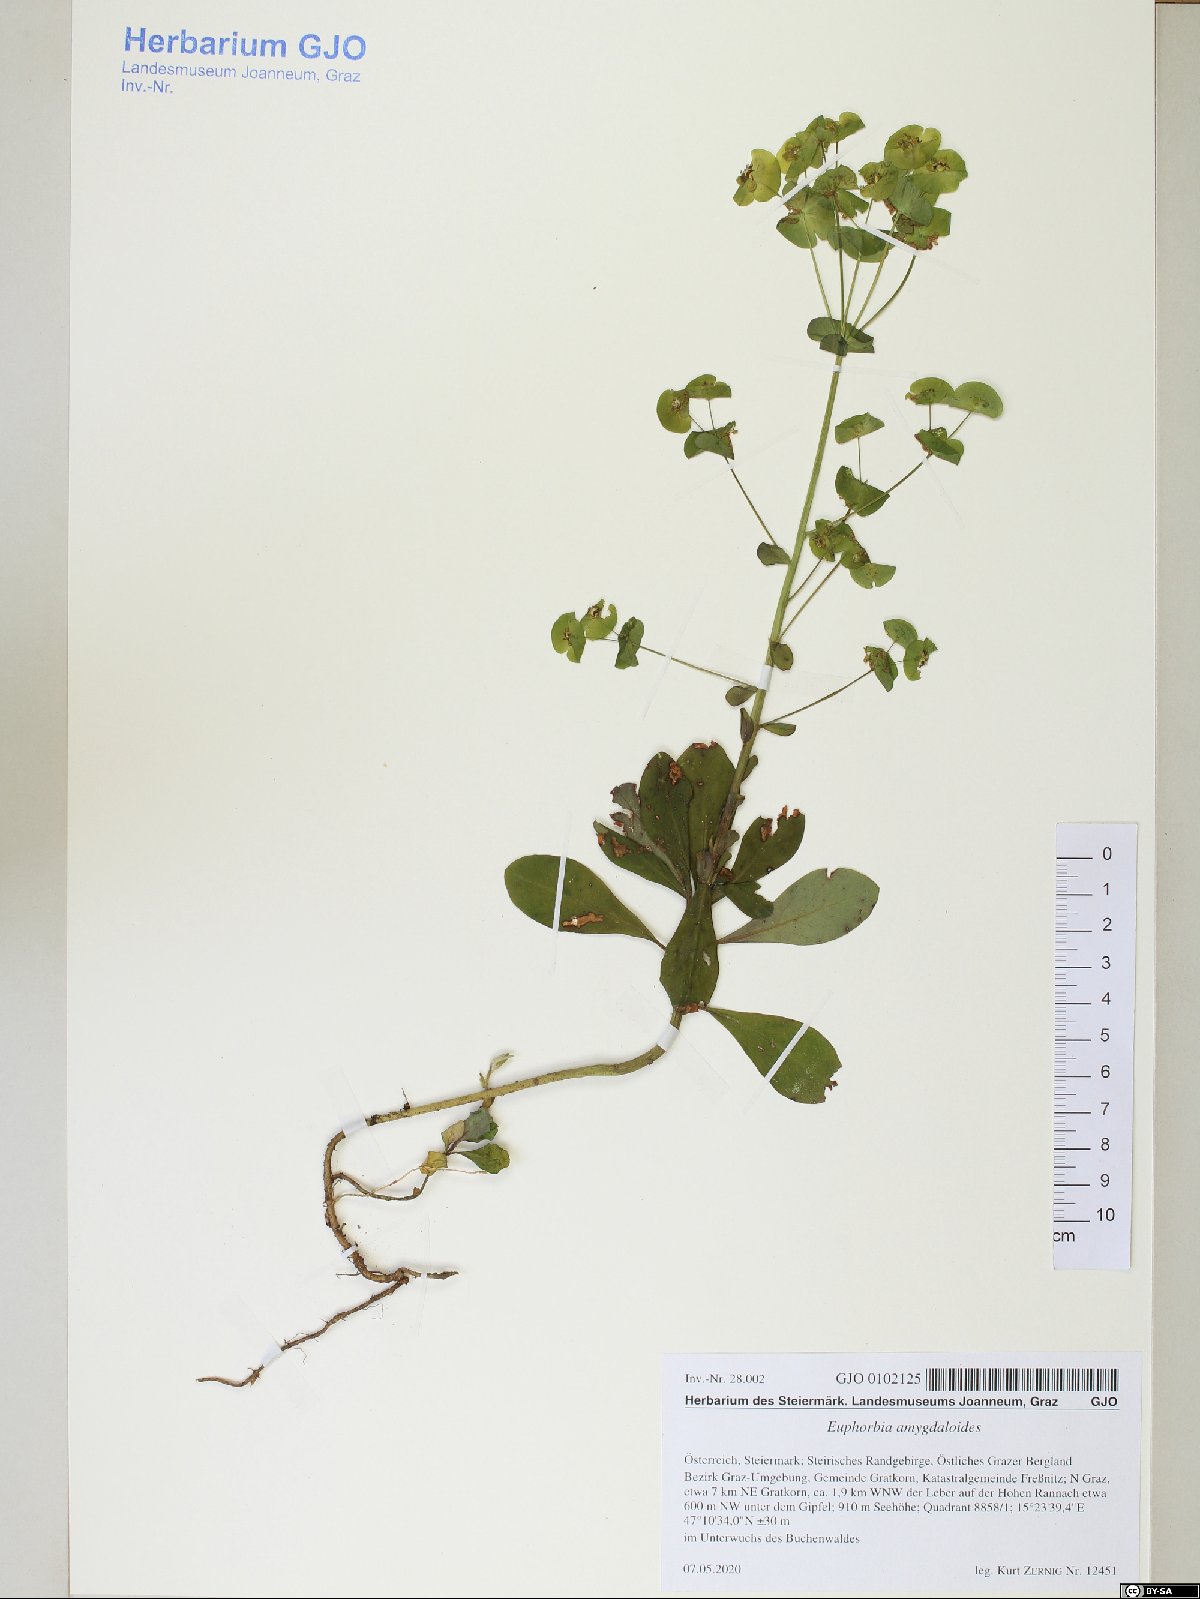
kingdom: Plantae
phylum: Tracheophyta
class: Magnoliopsida
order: Malpighiales
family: Euphorbiaceae
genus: Euphorbia
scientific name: Euphorbia amygdaloides
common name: Wood spurge
